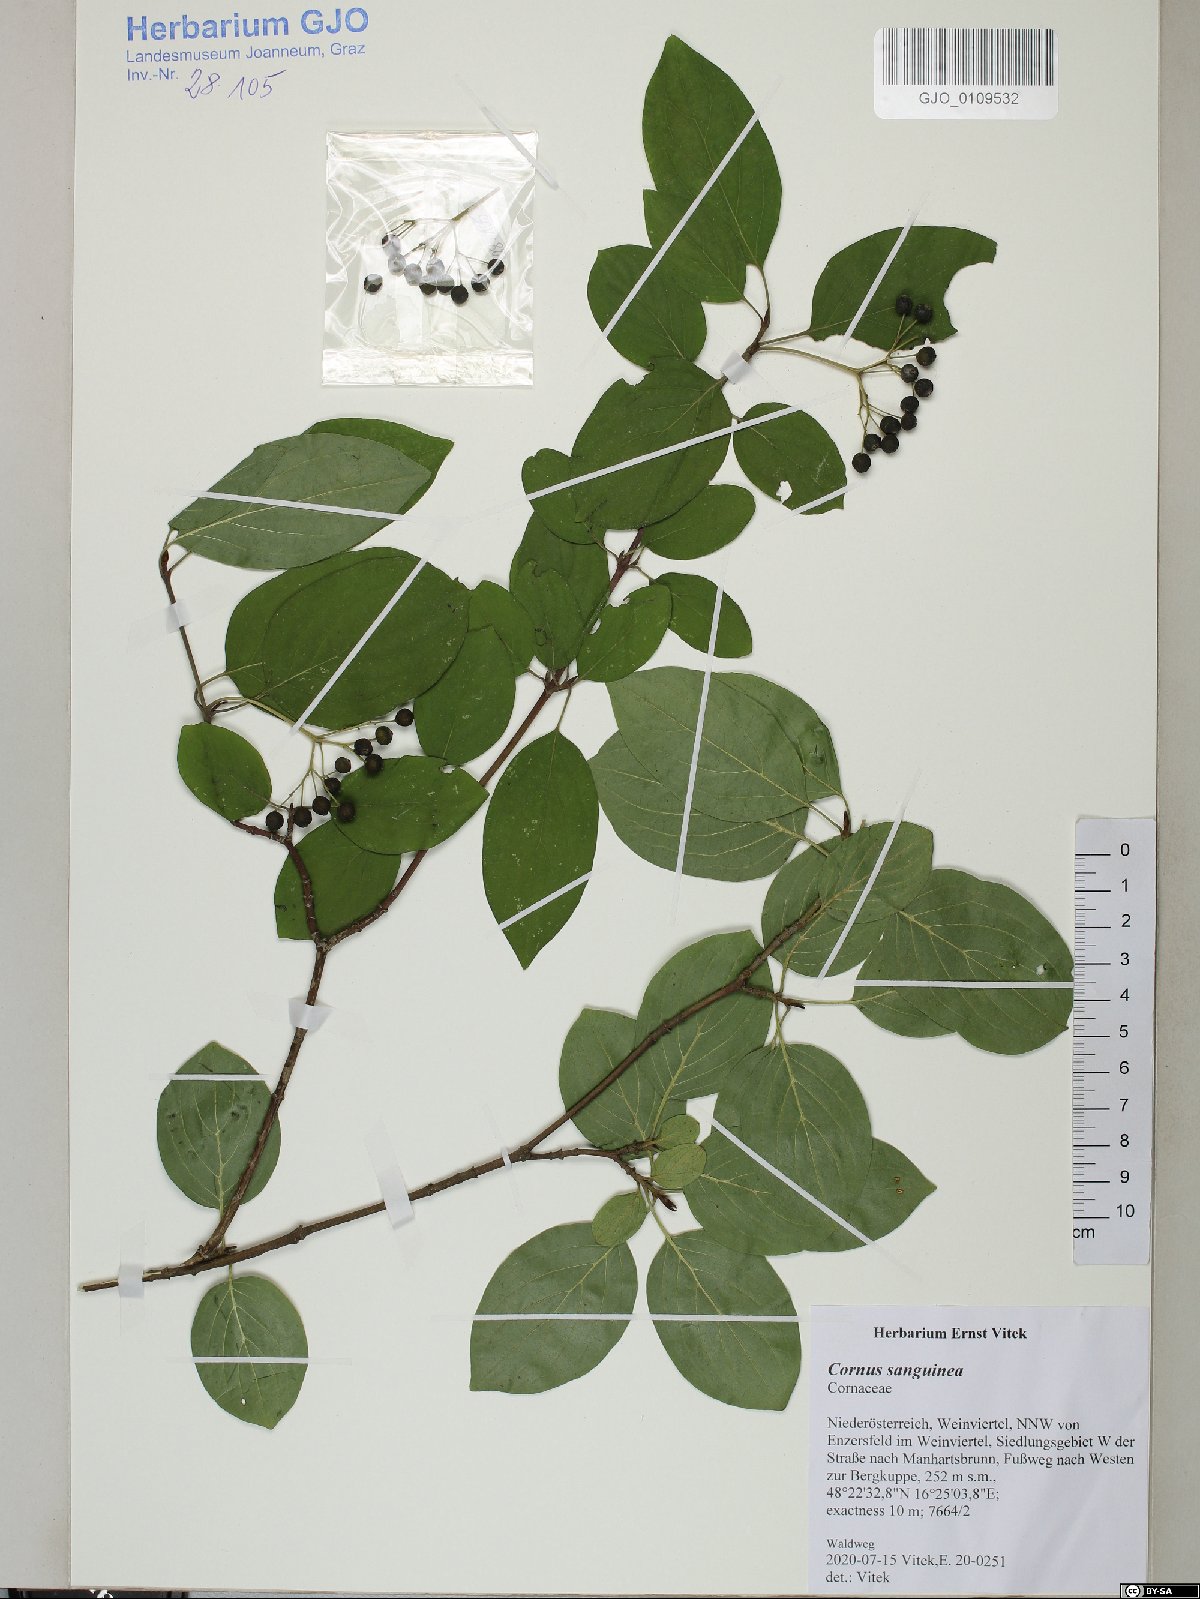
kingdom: Plantae
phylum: Tracheophyta
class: Magnoliopsida
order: Cornales
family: Cornaceae
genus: Cornus
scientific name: Cornus sanguinea
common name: Dogwood
